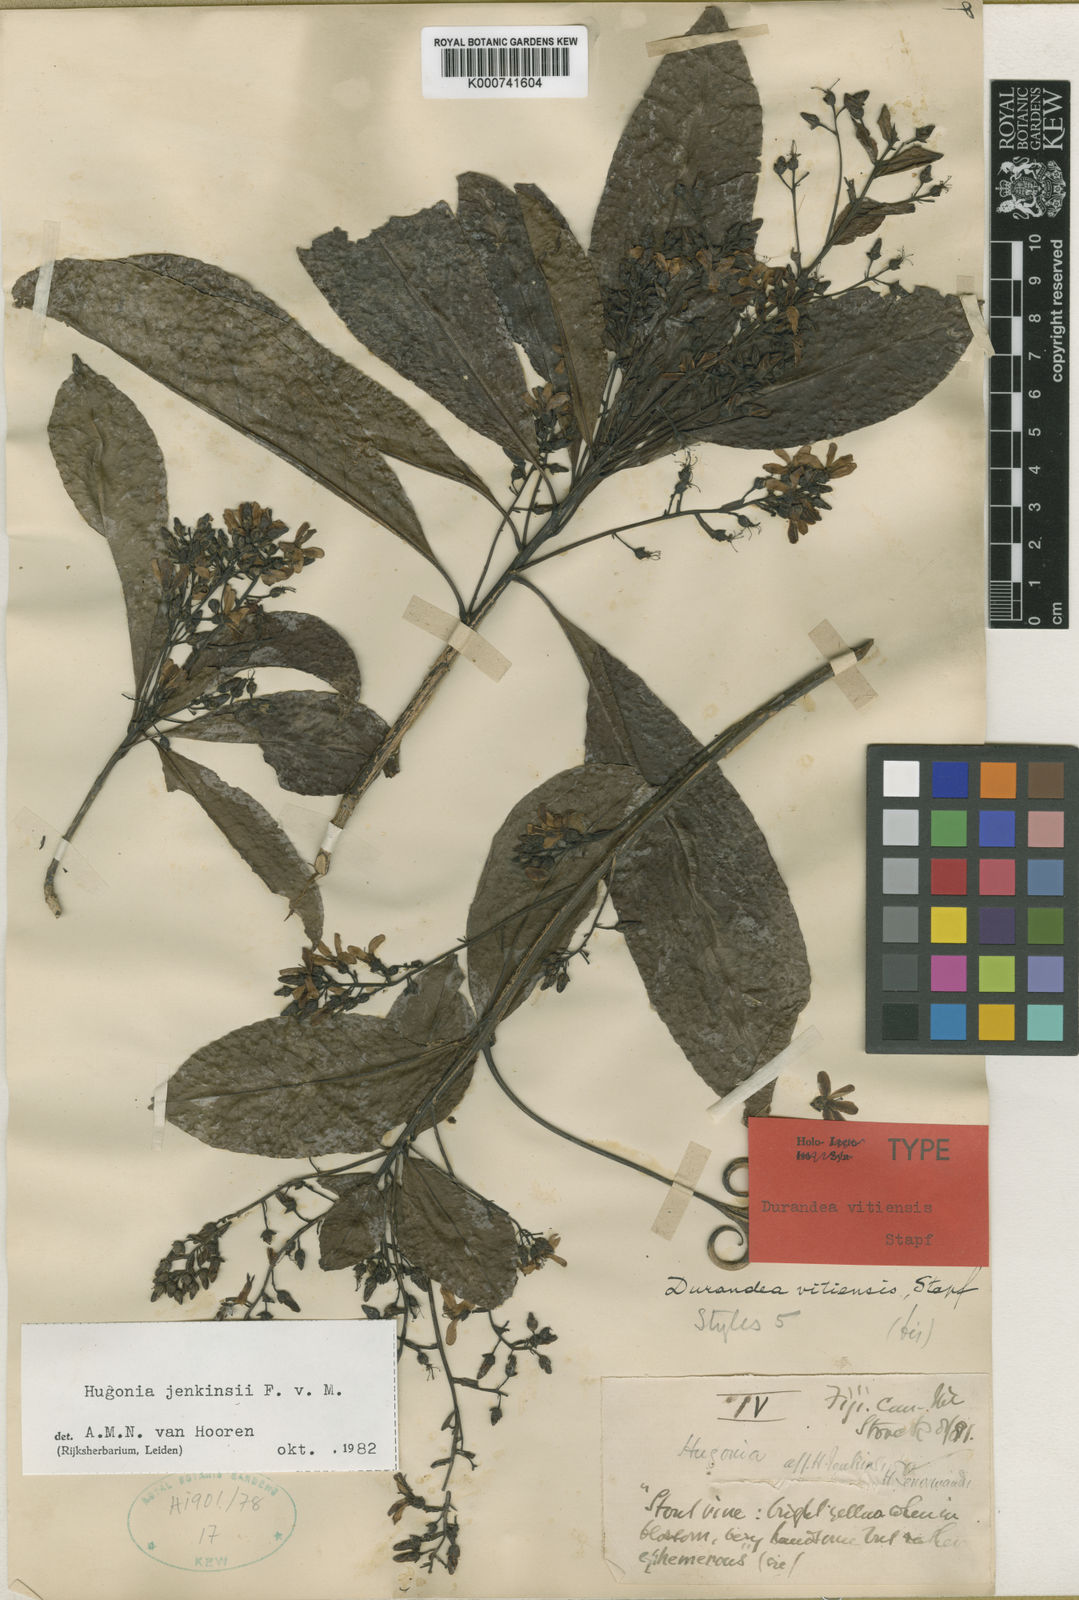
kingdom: Plantae
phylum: Tracheophyta
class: Magnoliopsida
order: Malpighiales
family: Linaceae
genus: Durandea
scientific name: Durandea vitiensis
